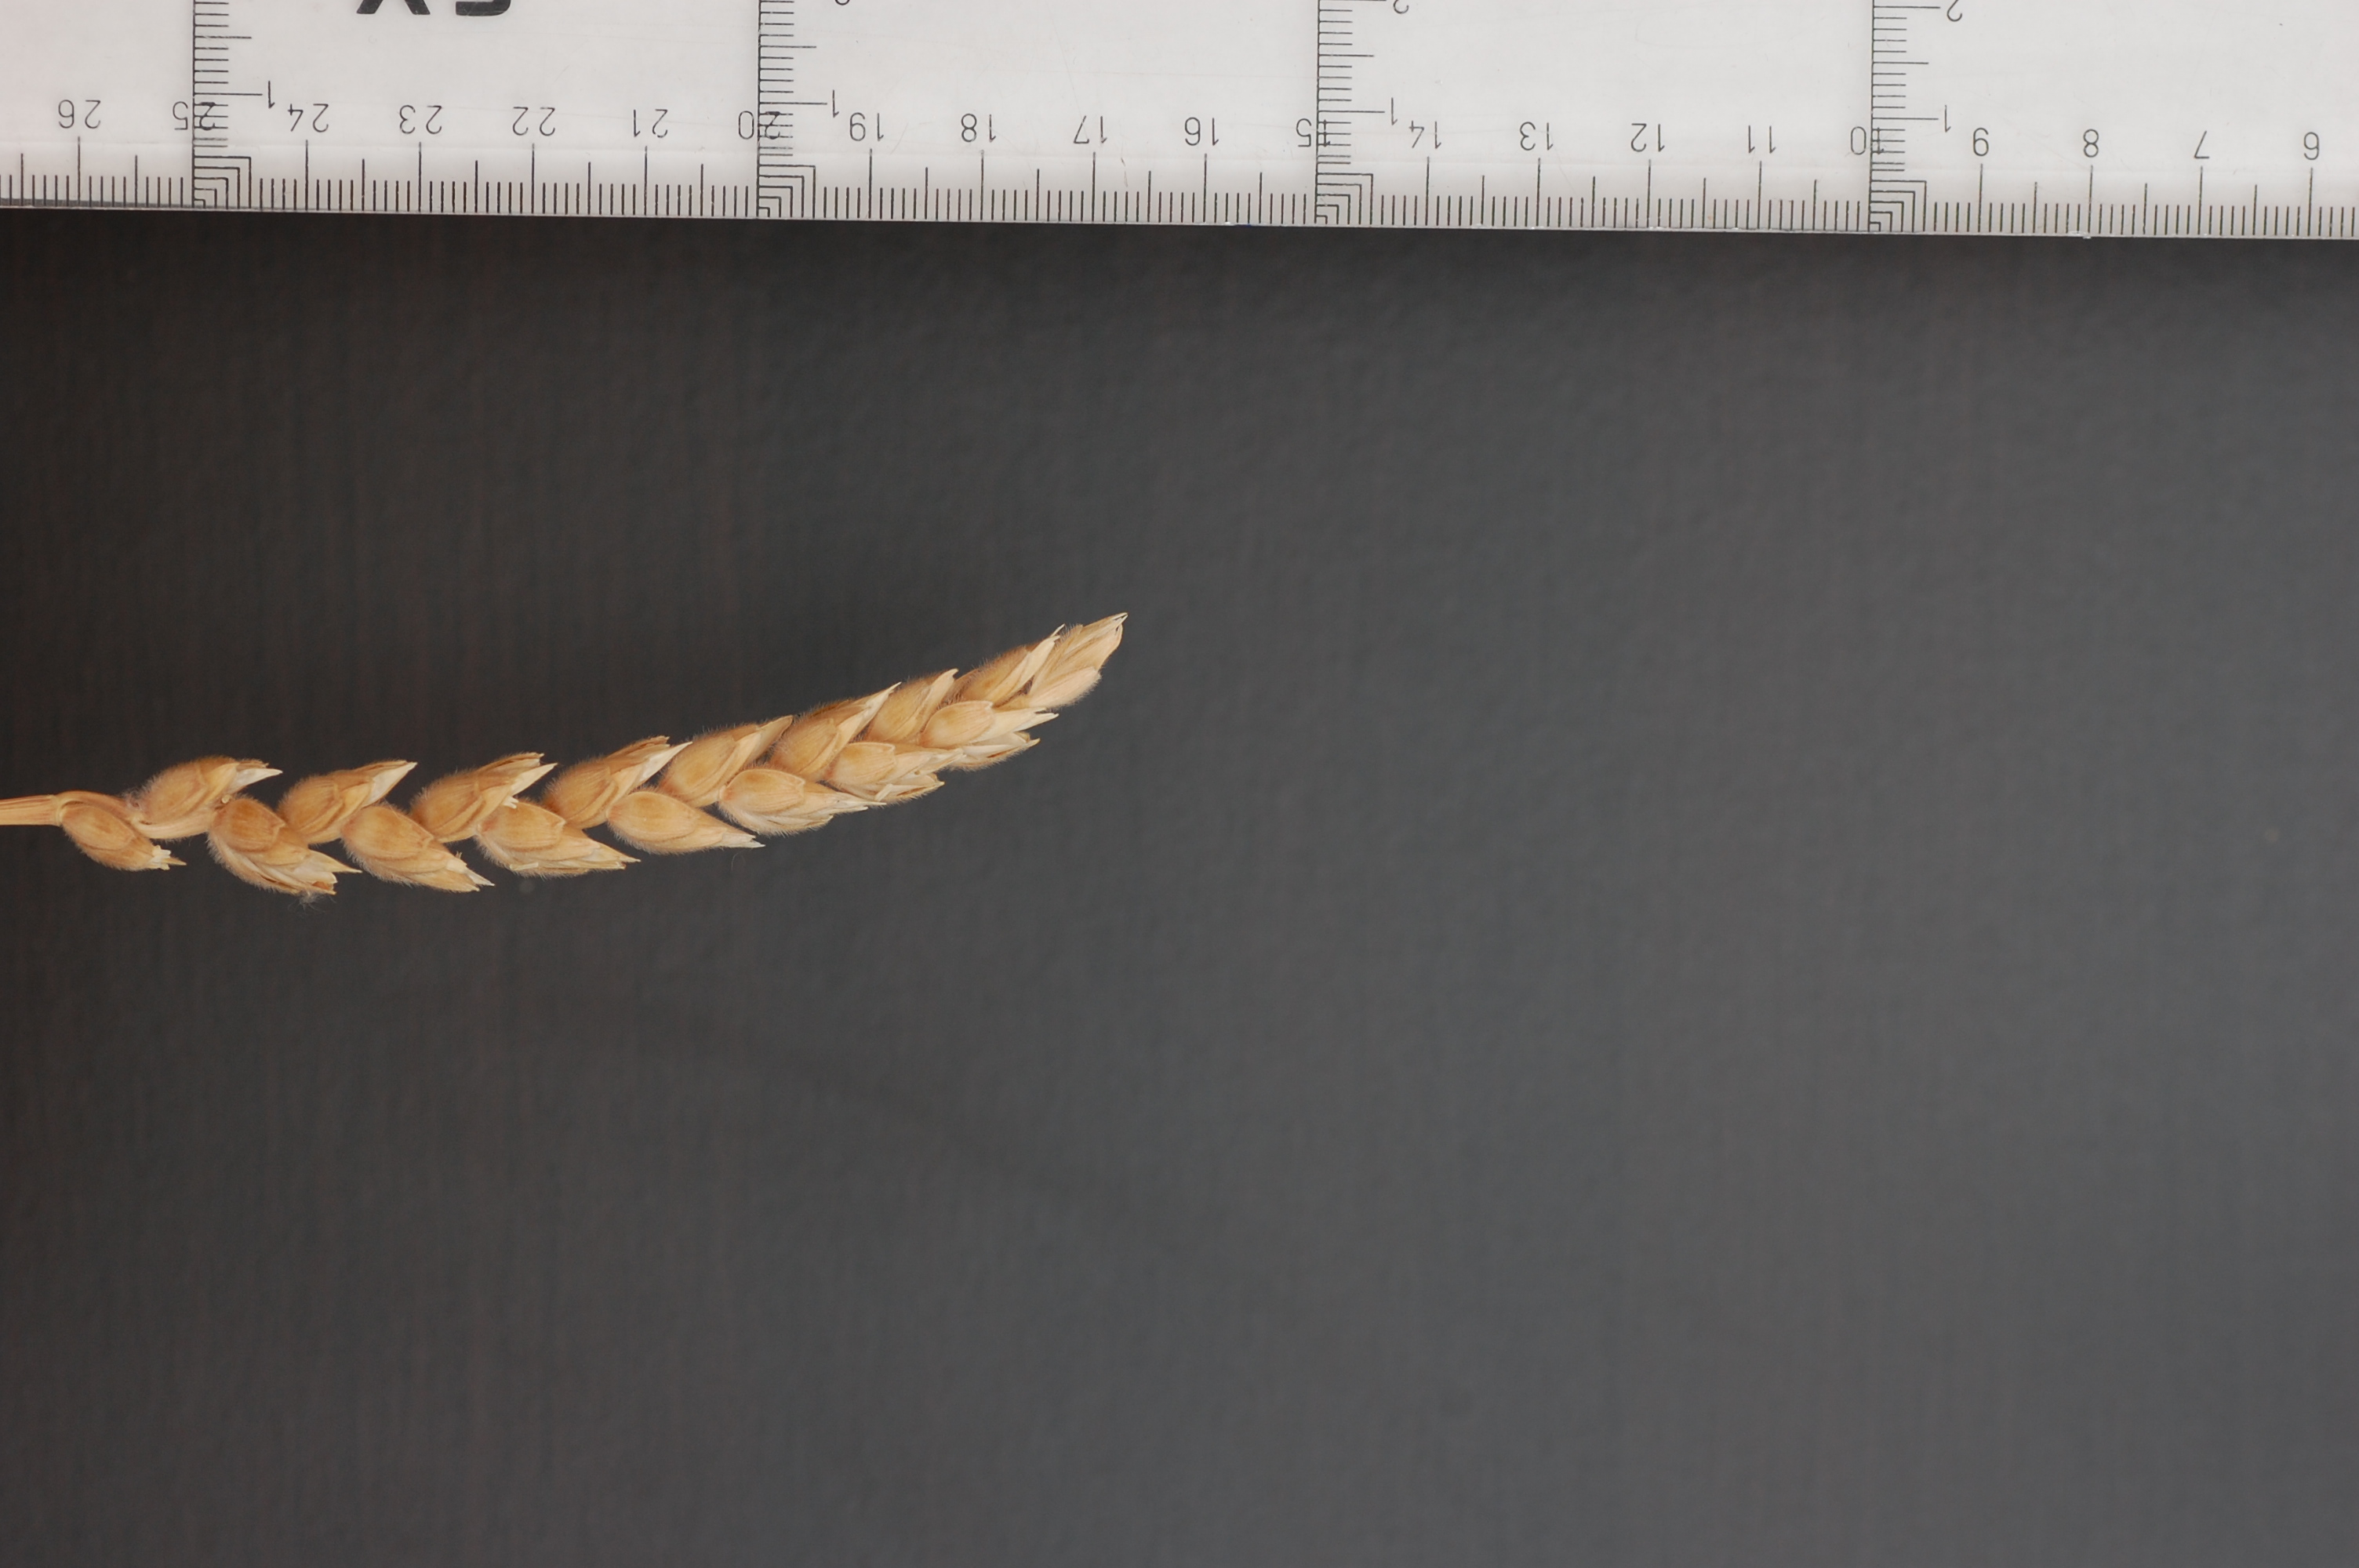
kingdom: Plantae
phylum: Tracheophyta
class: Liliopsida
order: Poales
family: Poaceae
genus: Triticum
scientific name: Triticum aestivum
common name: Common wheat
